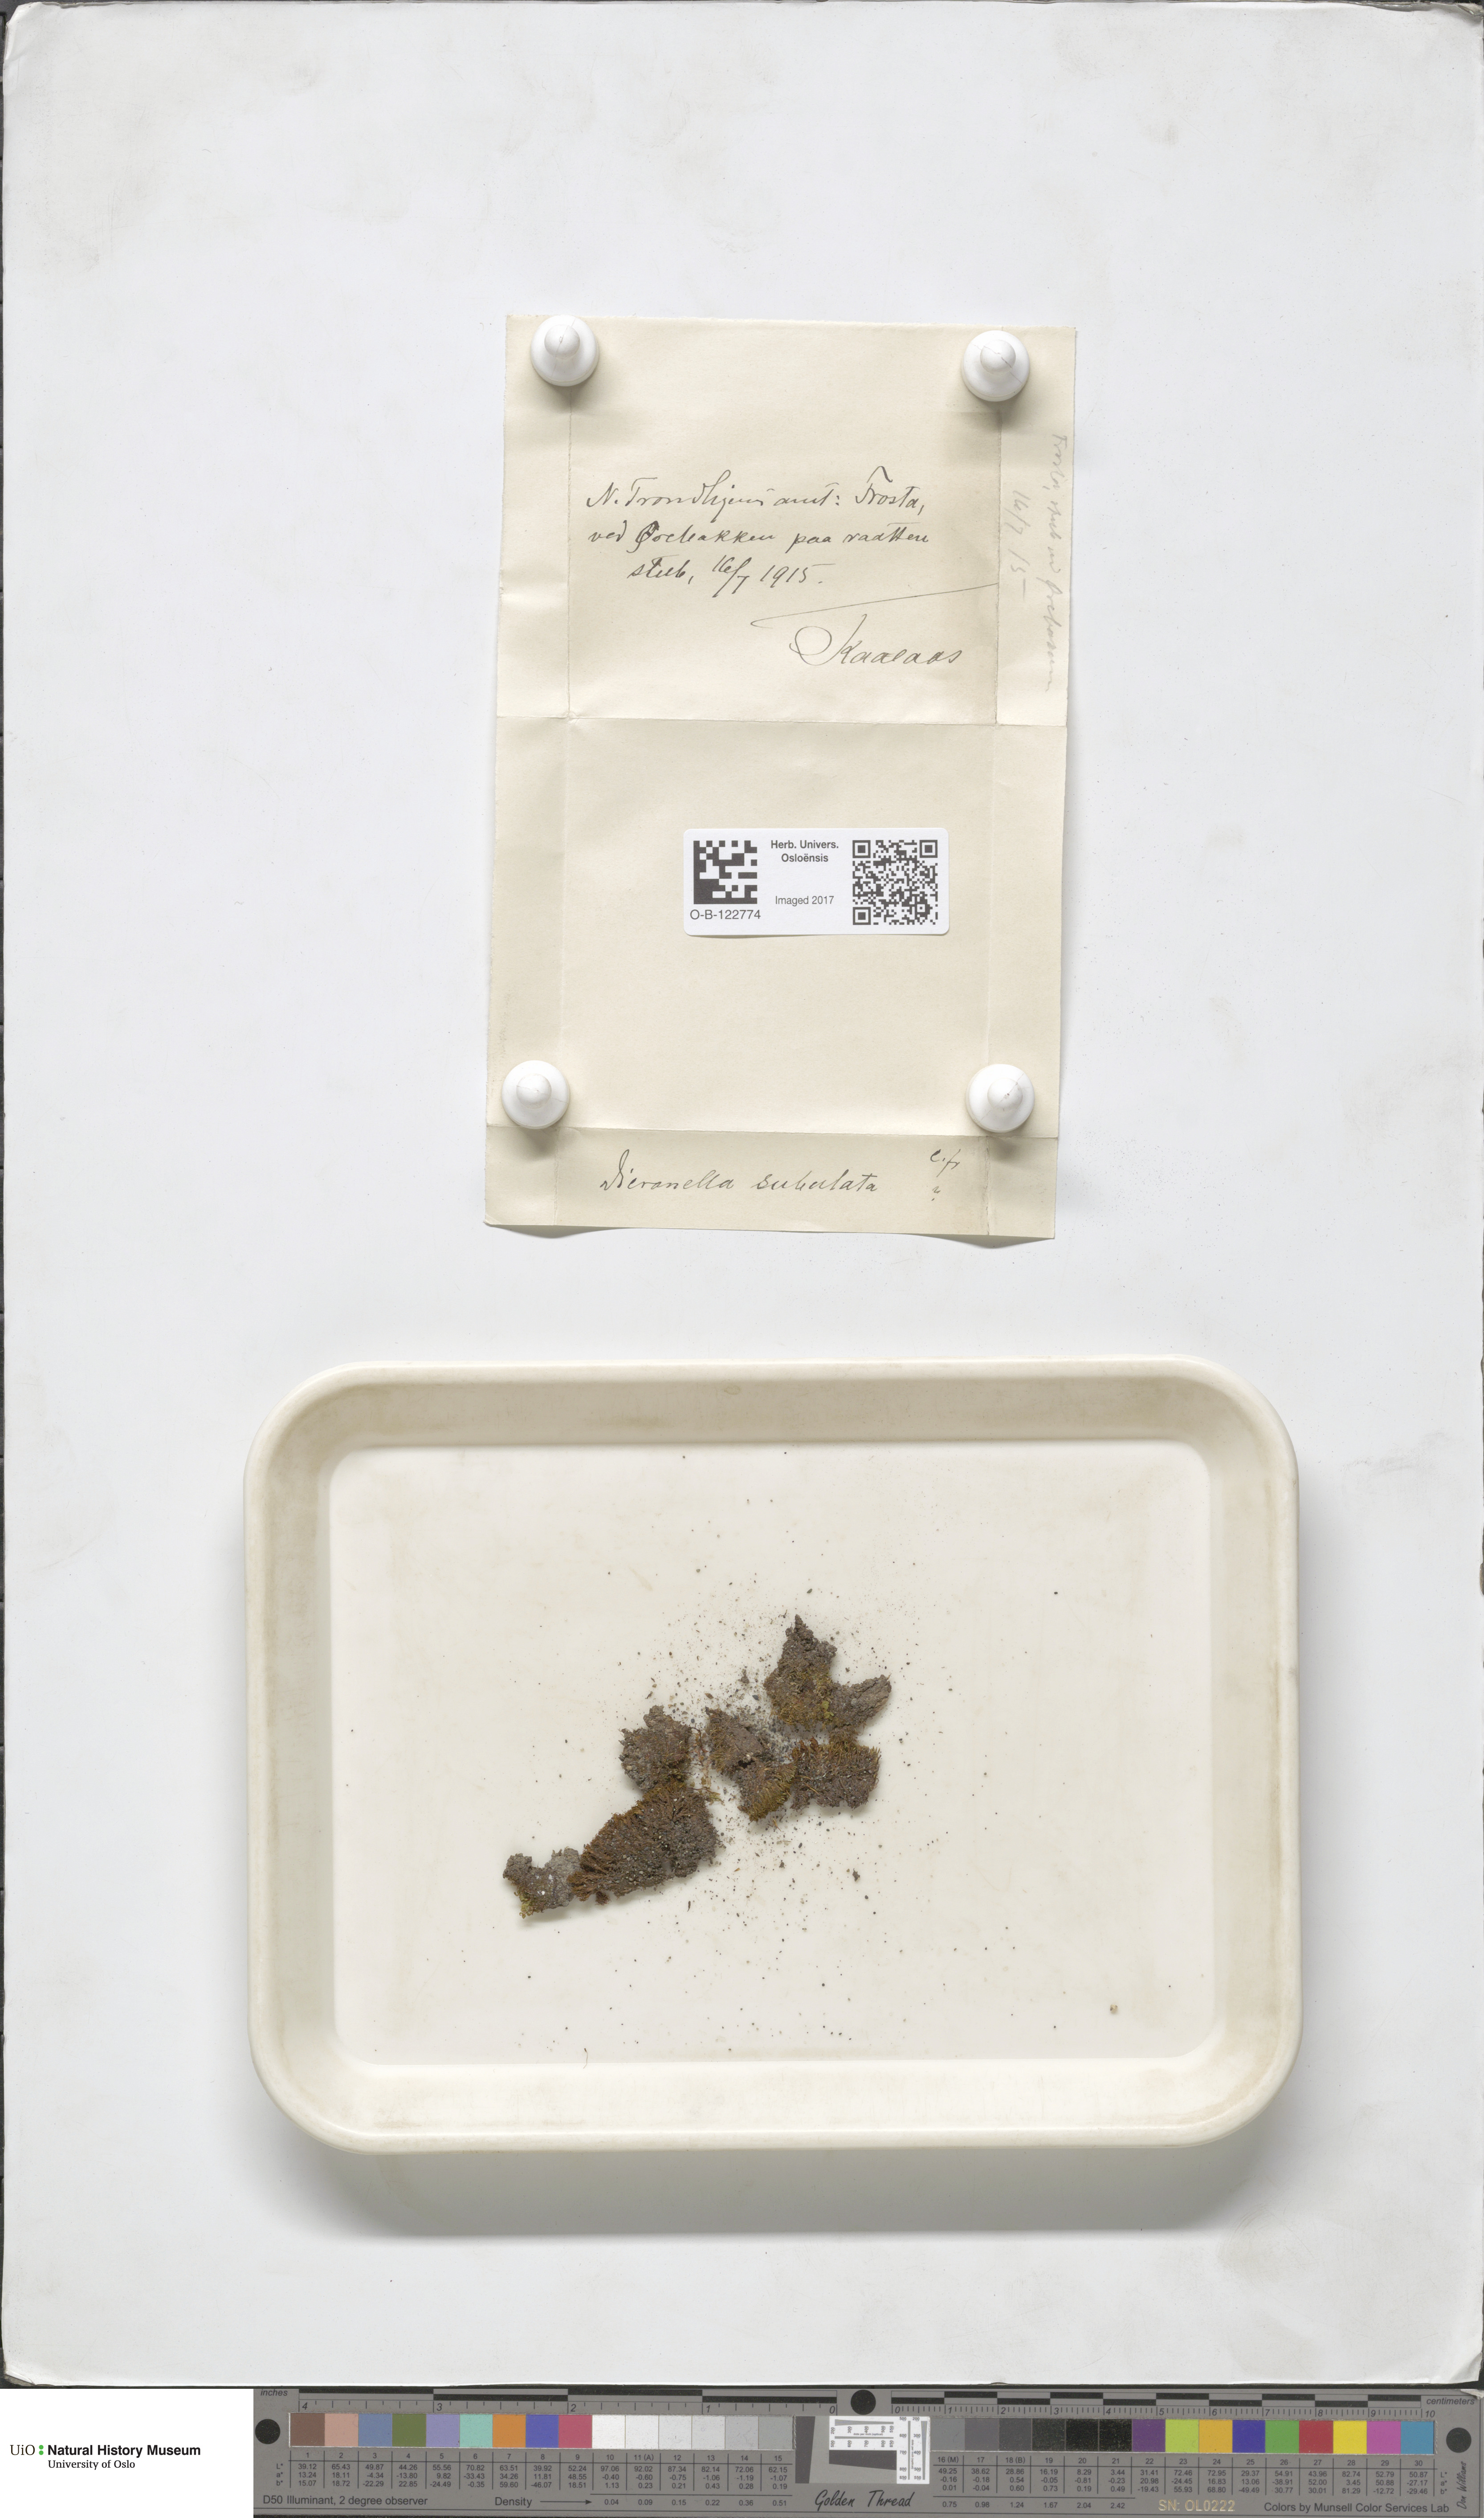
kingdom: Plantae
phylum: Bryophyta
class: Bryopsida
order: Dicranales
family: Dicranellaceae
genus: Dicranella
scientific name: Dicranella subulata
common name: Awl-leaved forklet moss
